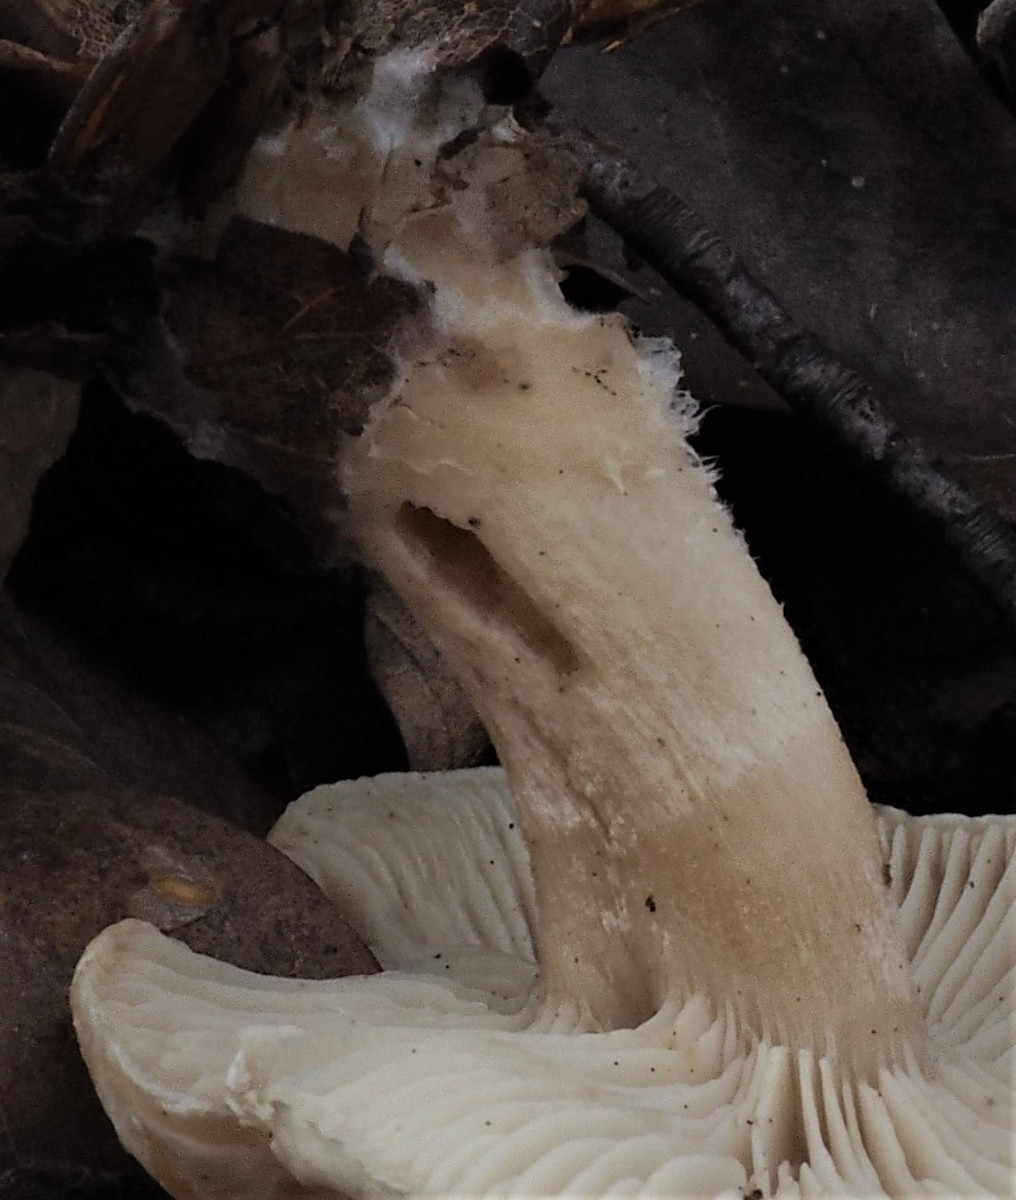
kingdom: Fungi
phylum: Basidiomycota
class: Agaricomycetes
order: Agaricales
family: Tricholomataceae
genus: Clitocybe
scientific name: Clitocybe phyllophila
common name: løv-tragthat
